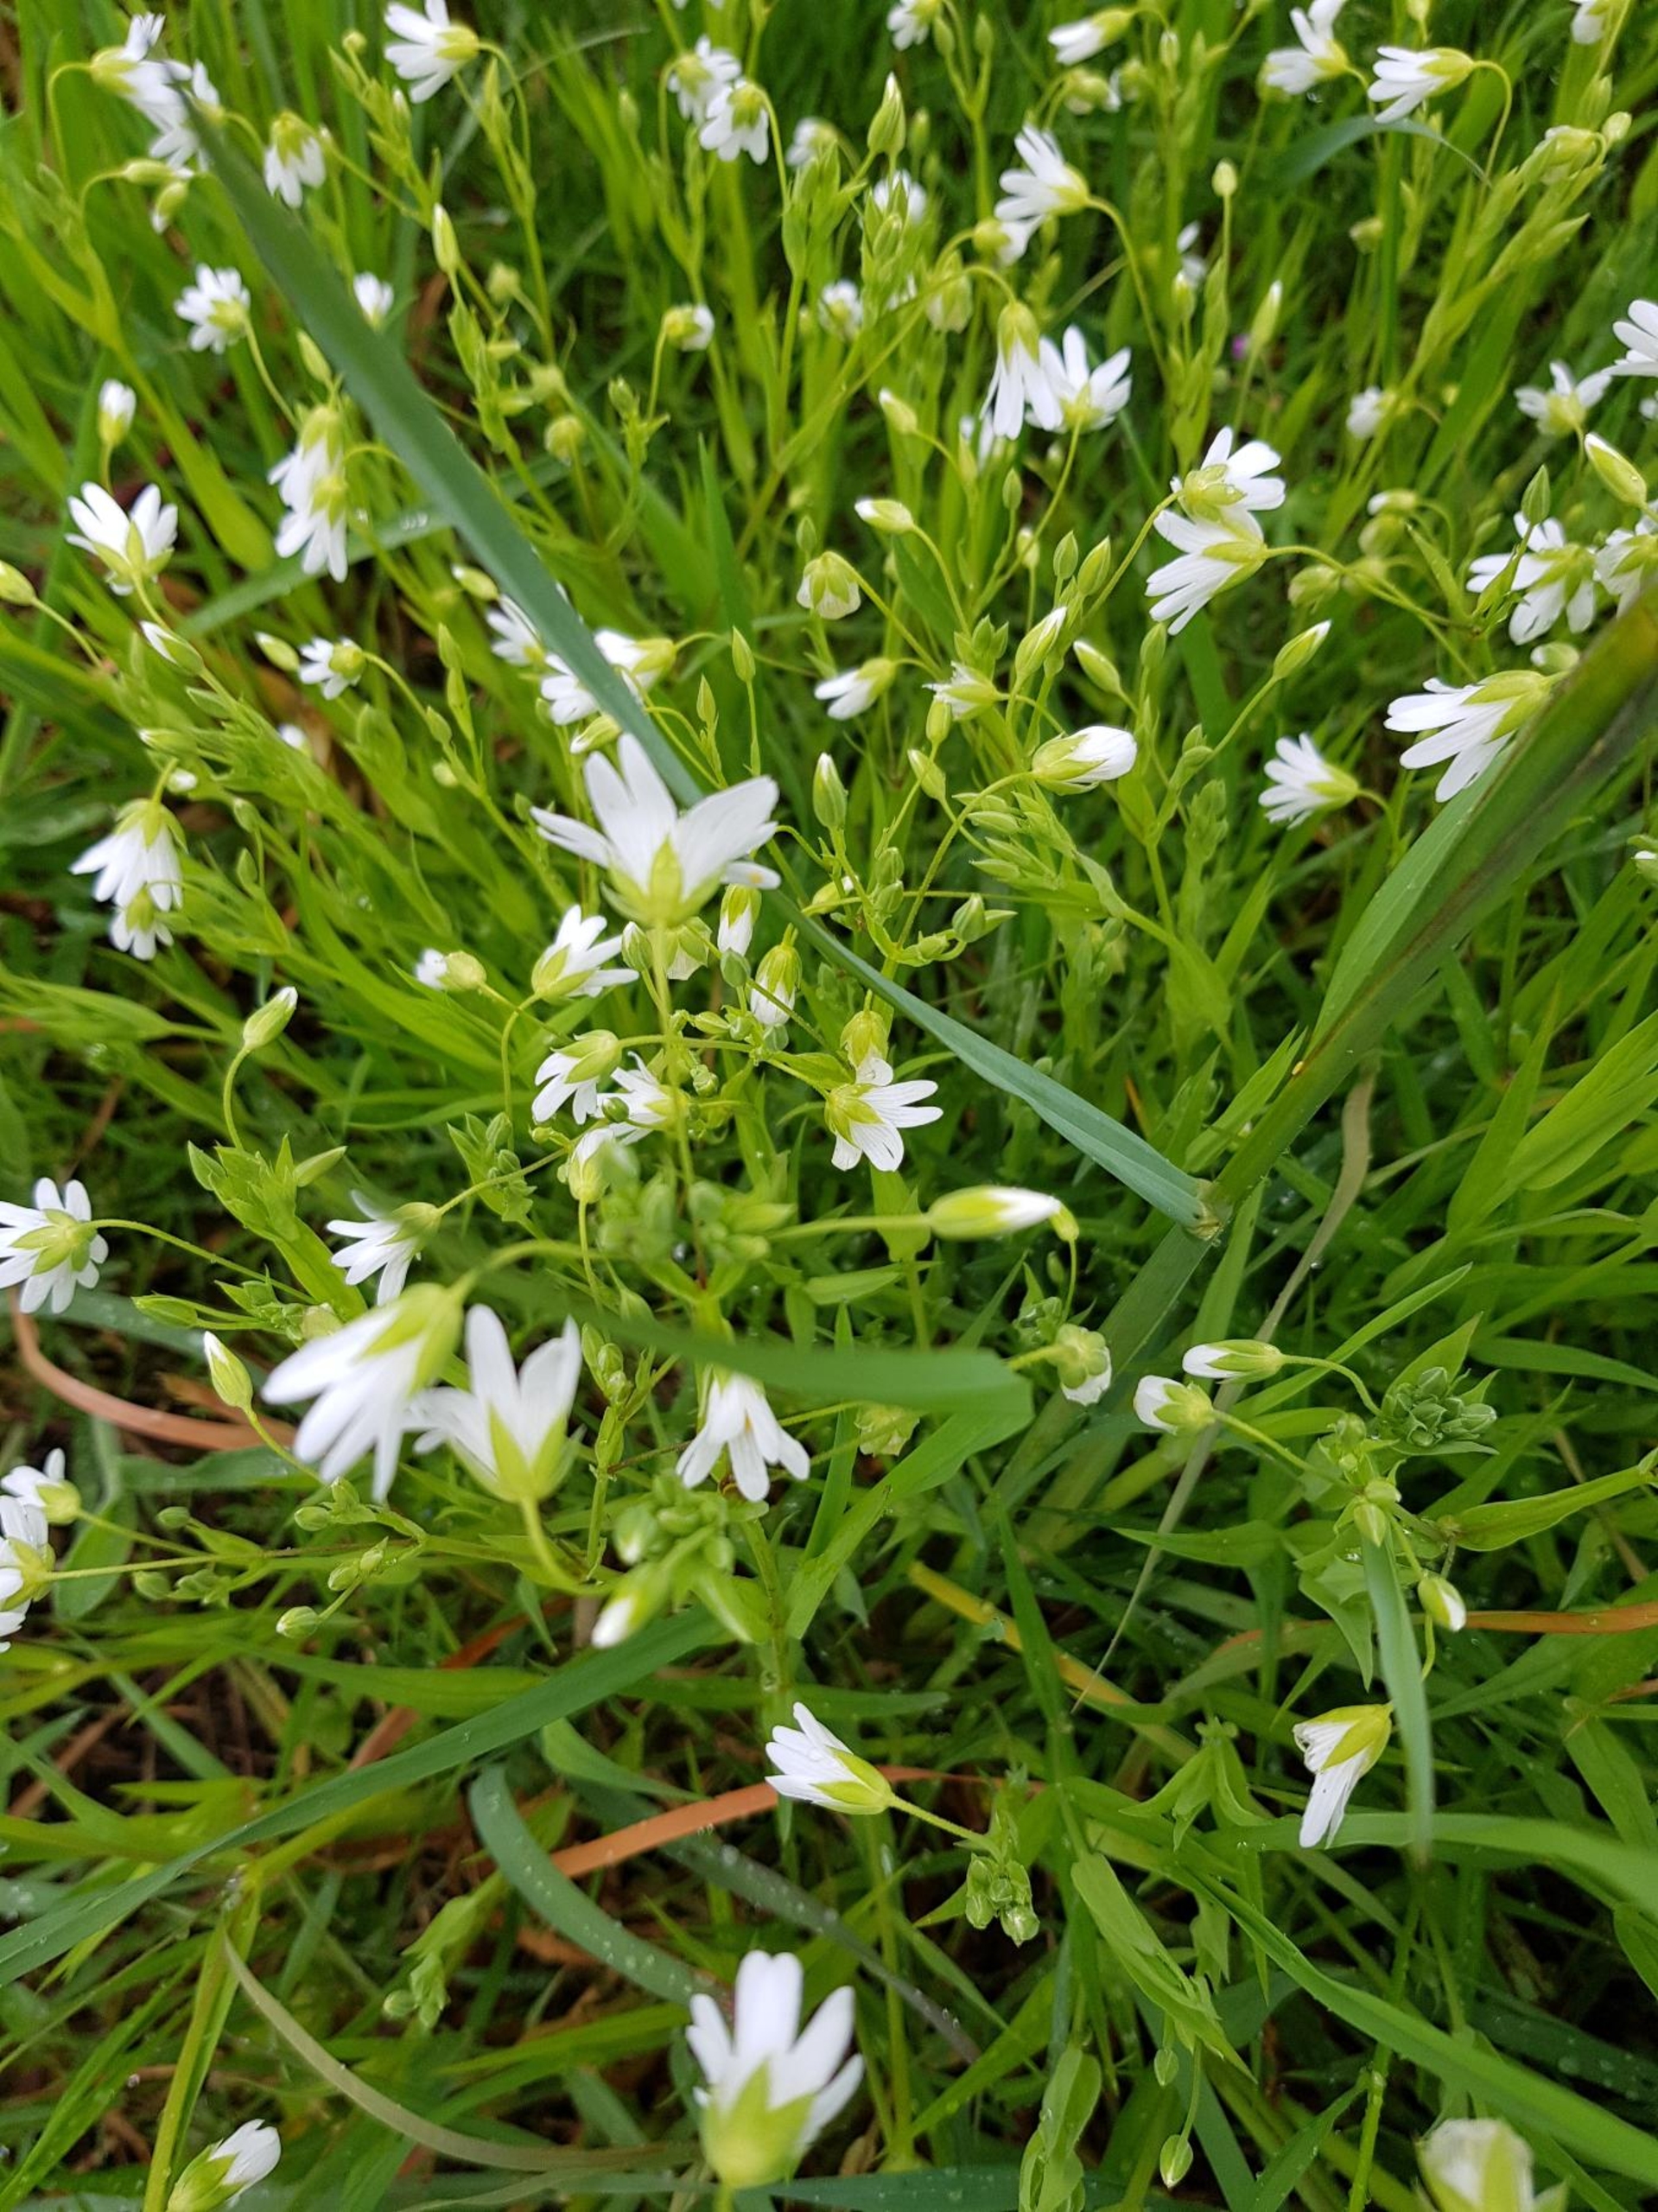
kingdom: Plantae
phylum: Tracheophyta
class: Magnoliopsida
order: Caryophyllales
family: Caryophyllaceae
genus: Rabelera
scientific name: Rabelera holostea
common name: Stor fladstjerne
